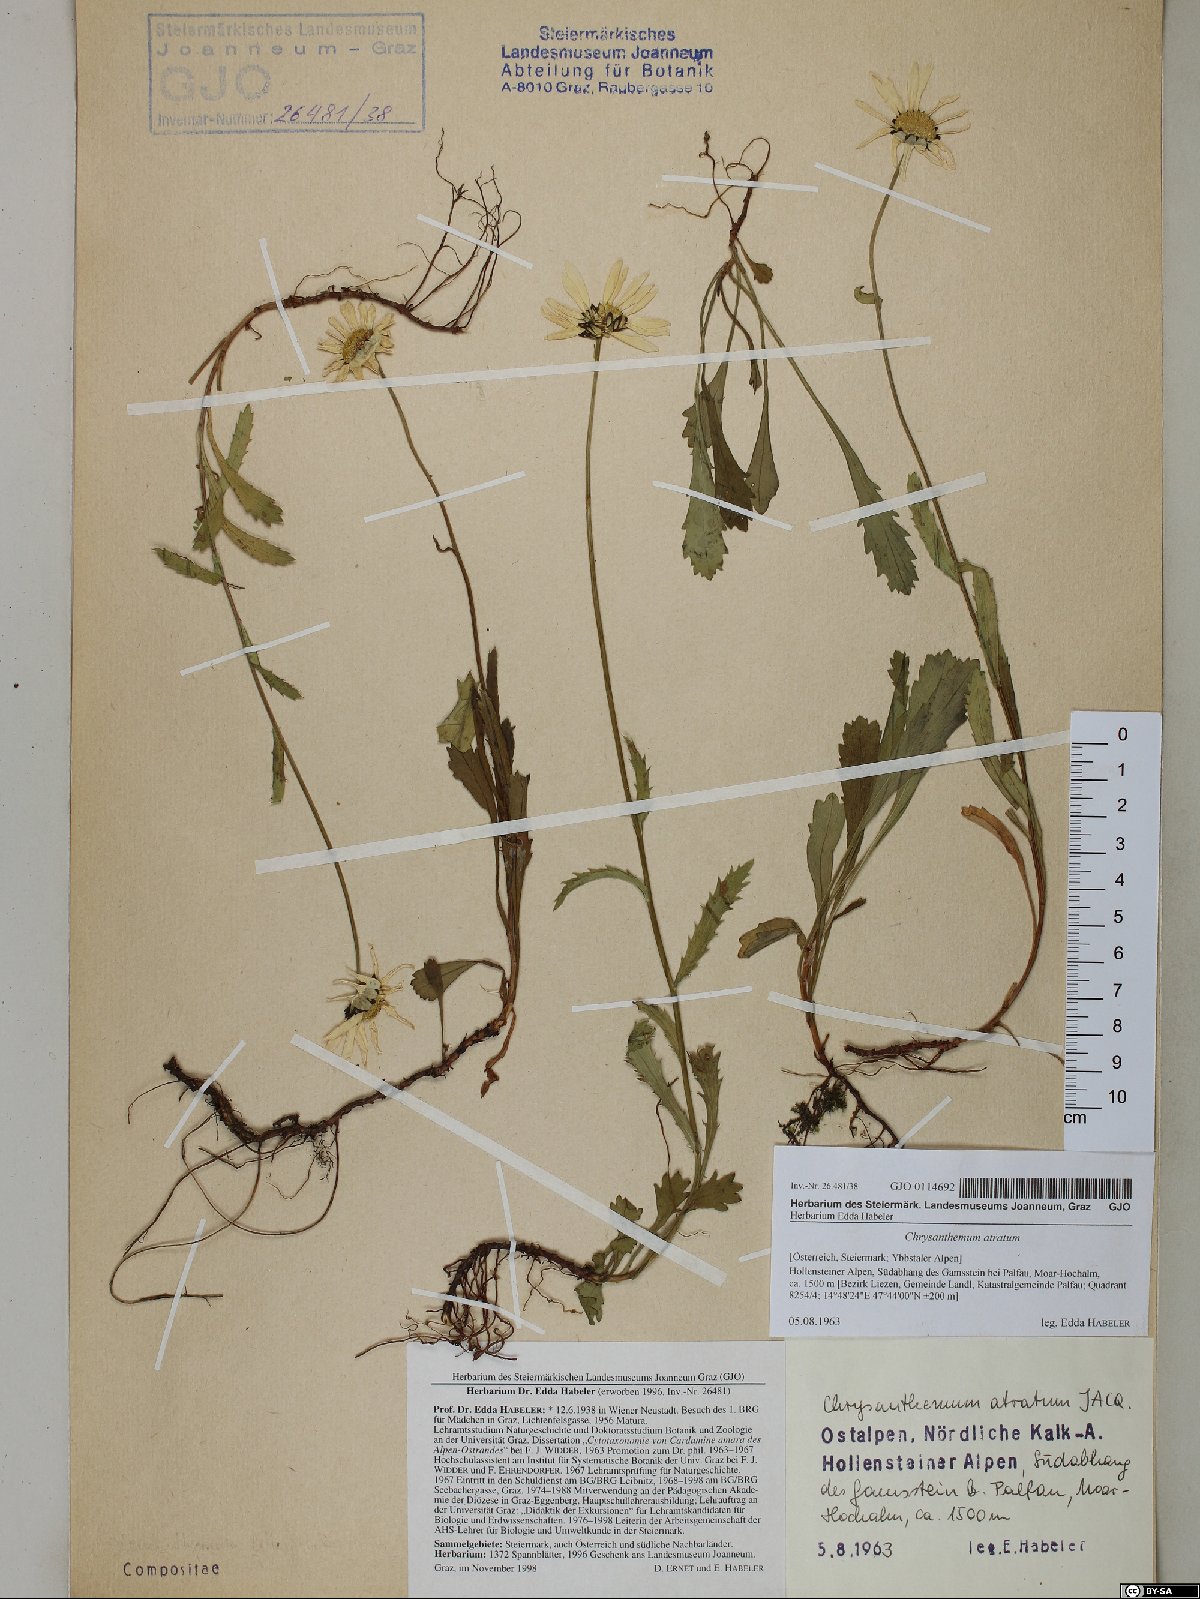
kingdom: Plantae
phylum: Tracheophyta
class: Magnoliopsida
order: Asterales
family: Asteraceae
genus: Leucanthemum
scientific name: Leucanthemum atratum
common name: Saw-leaved moon-daisy
